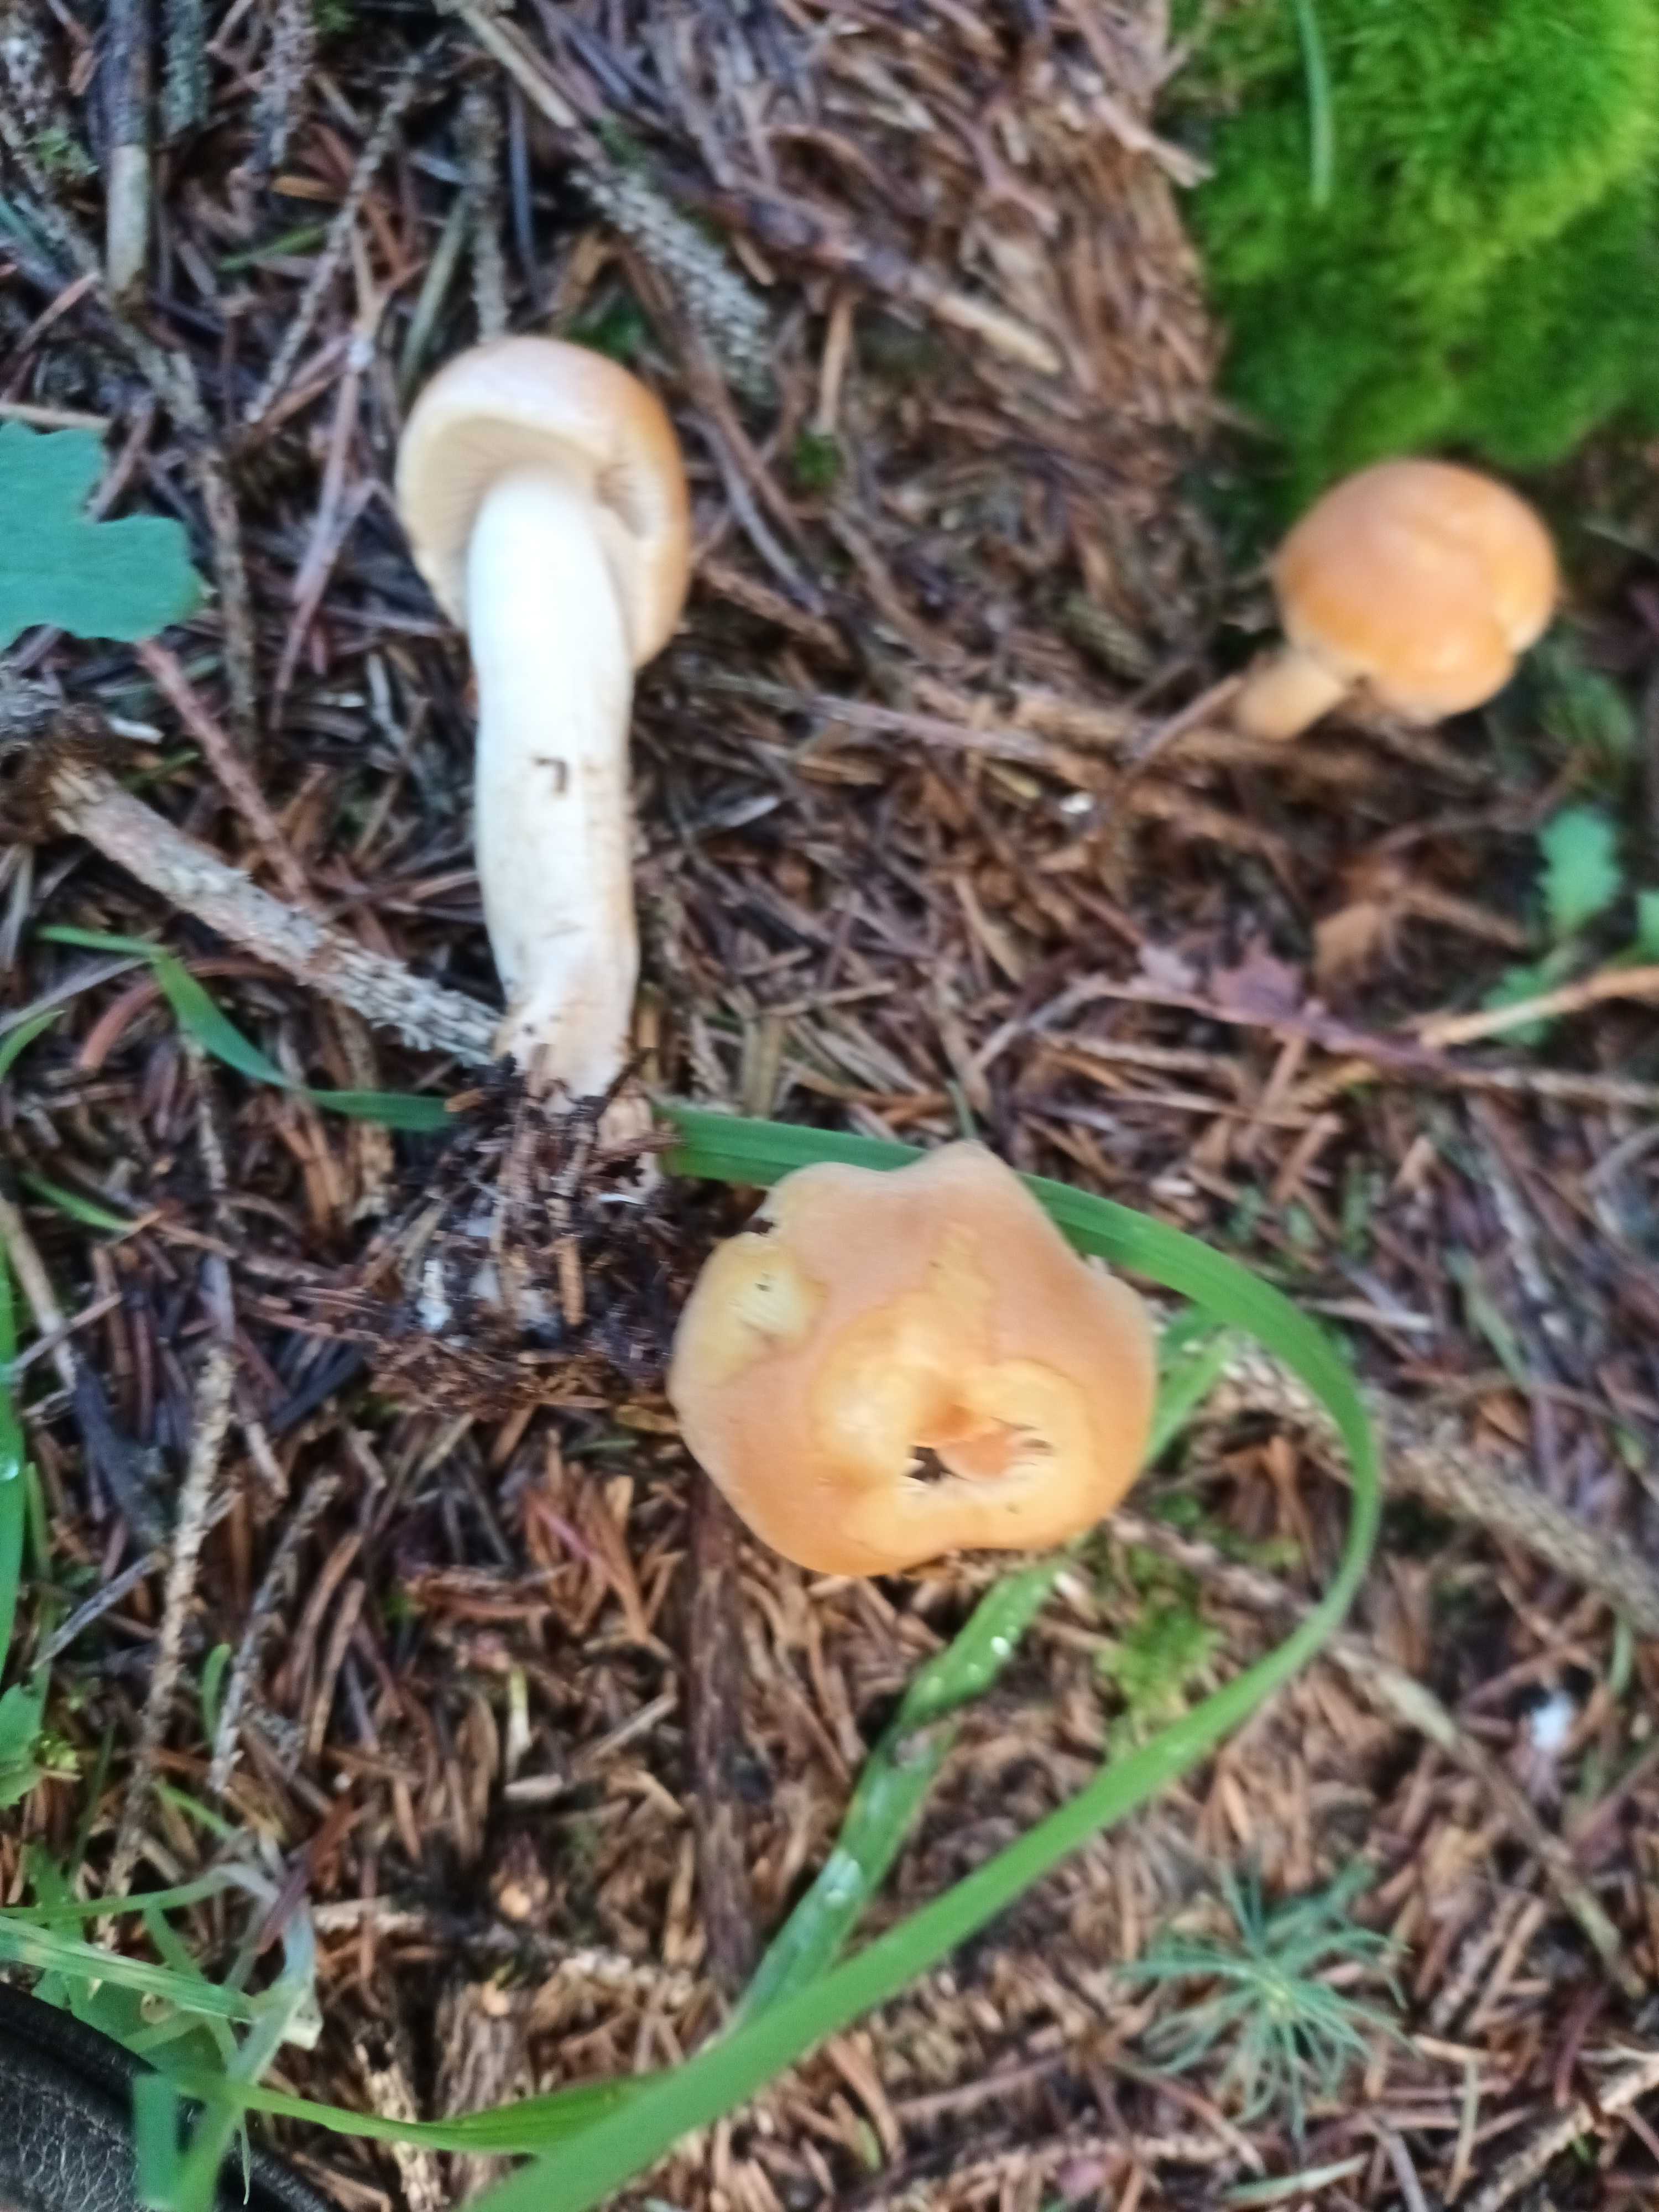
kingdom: Fungi
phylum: Basidiomycota
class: Agaricomycetes
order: Agaricales
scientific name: Agaricales
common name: champignonordenen
